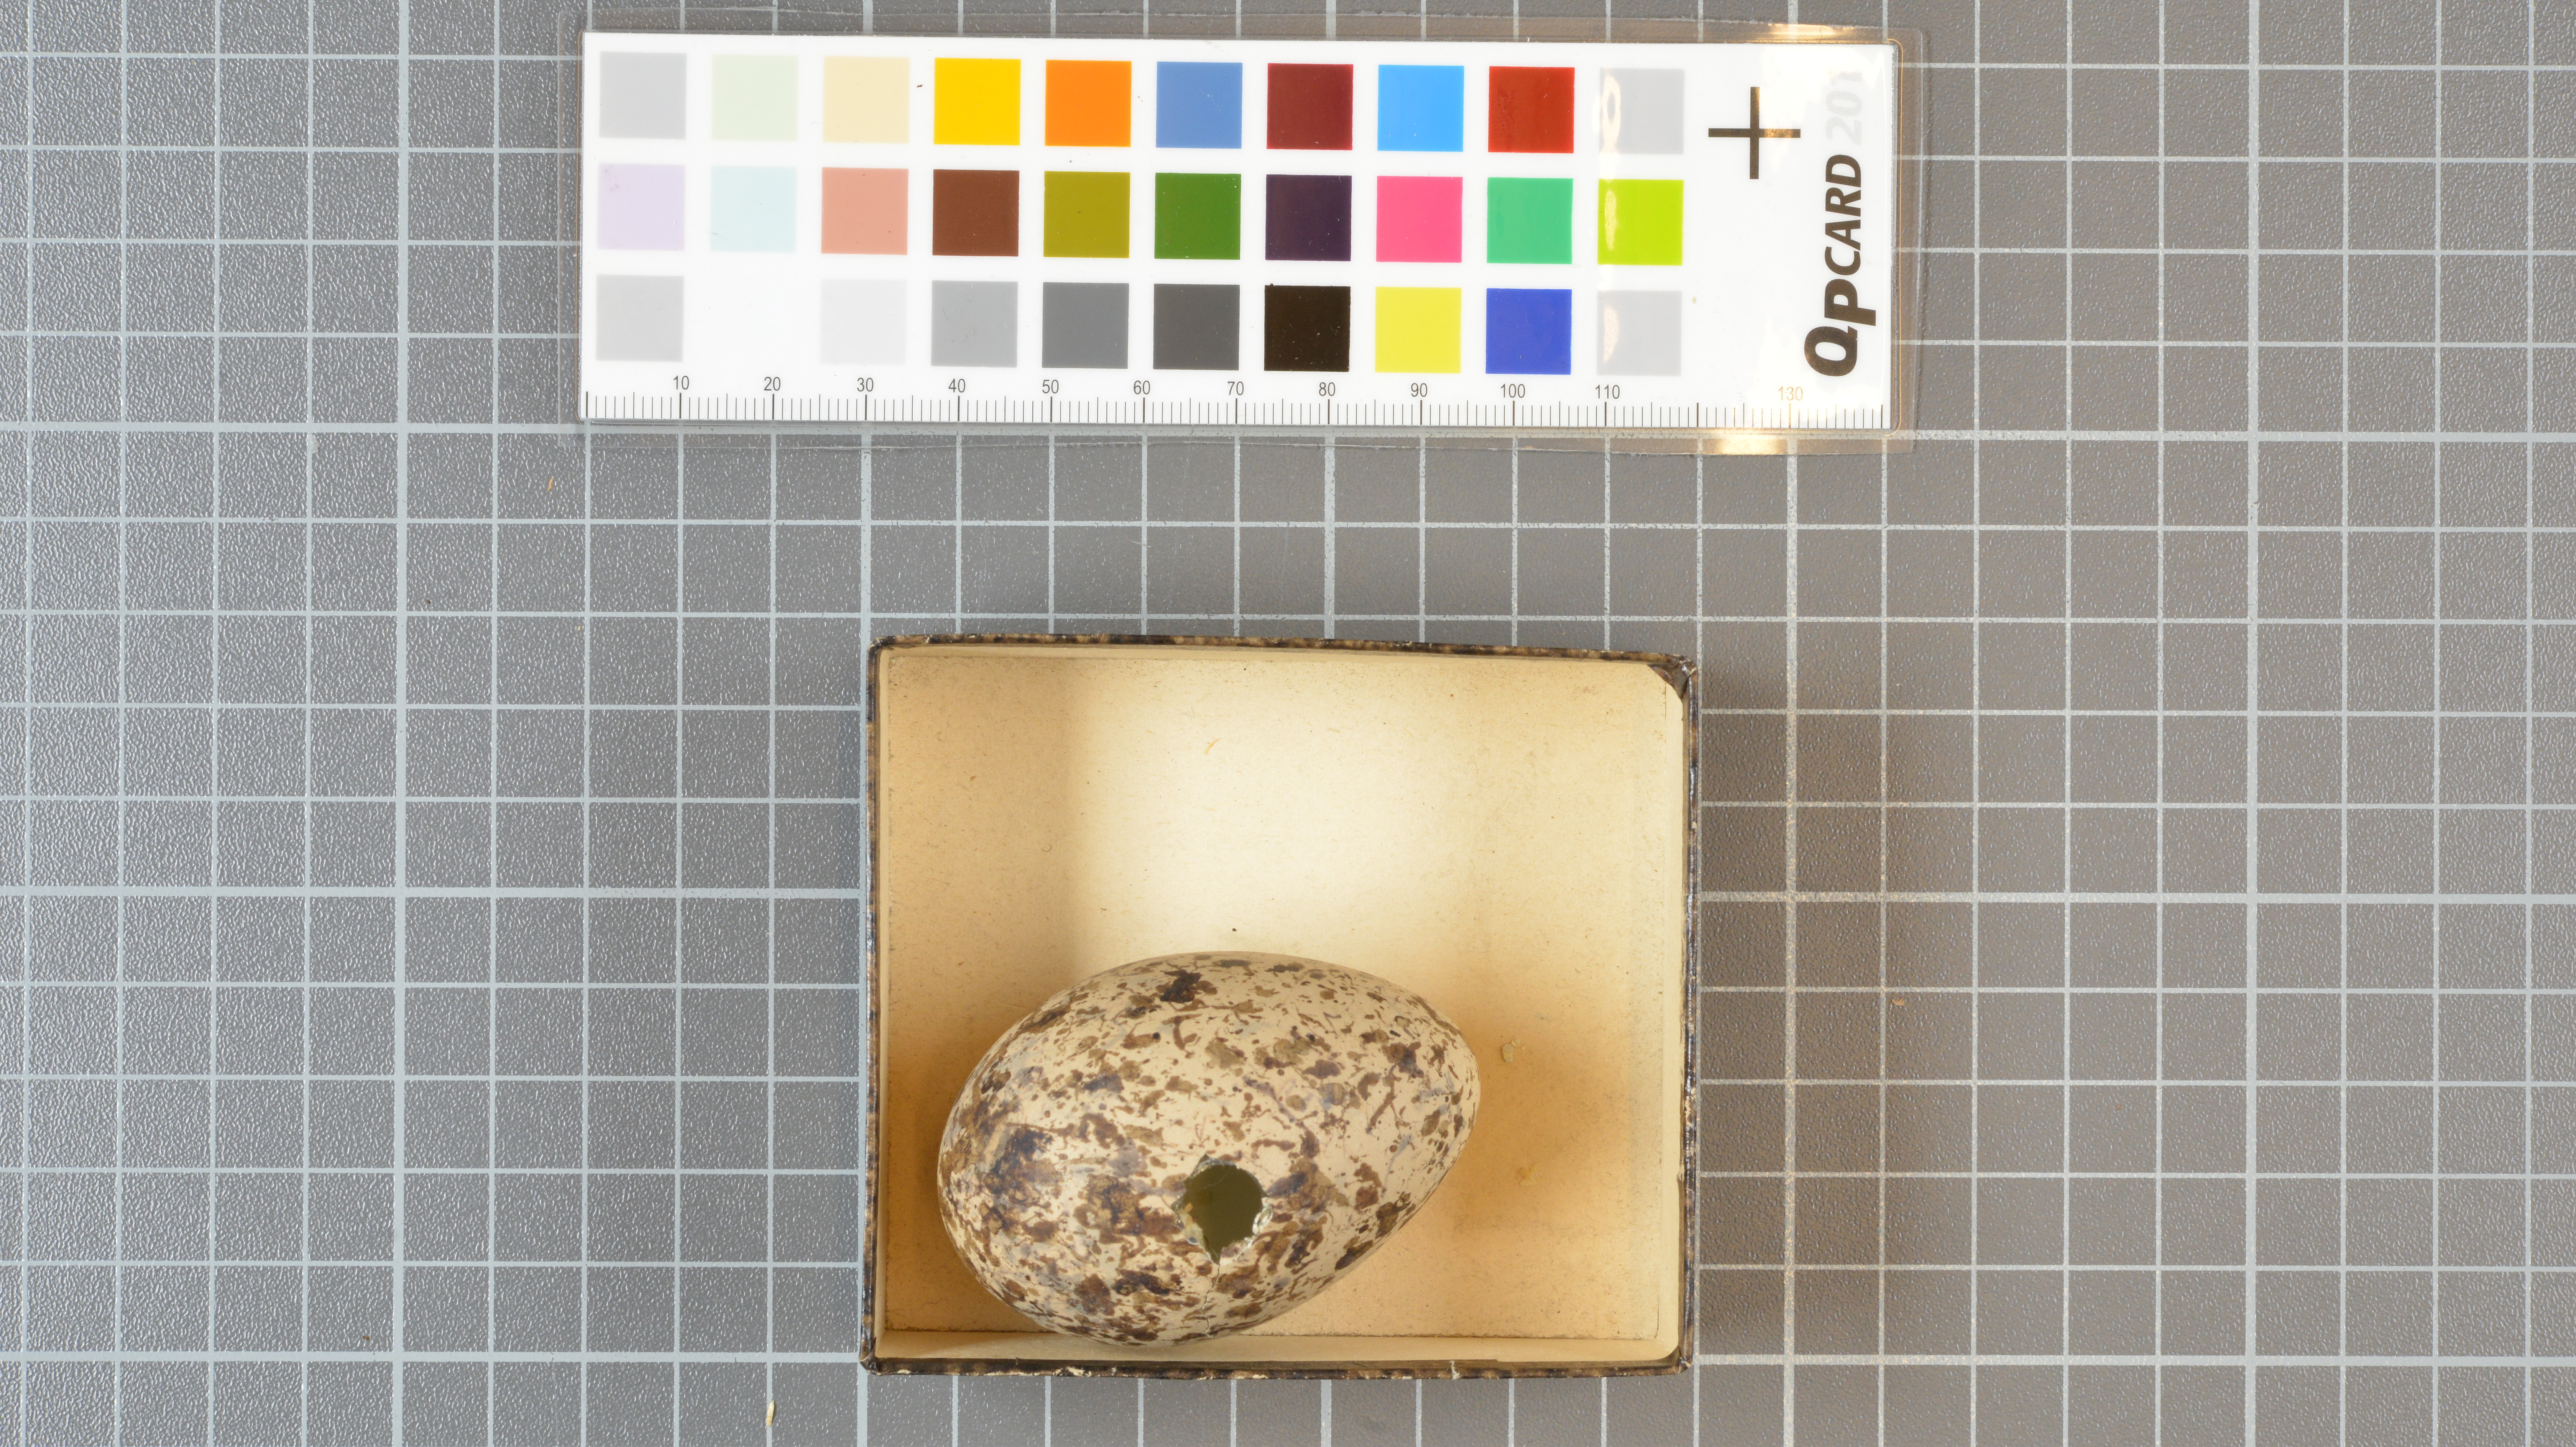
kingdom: Animalia
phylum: Chordata
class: Aves
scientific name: Aves
